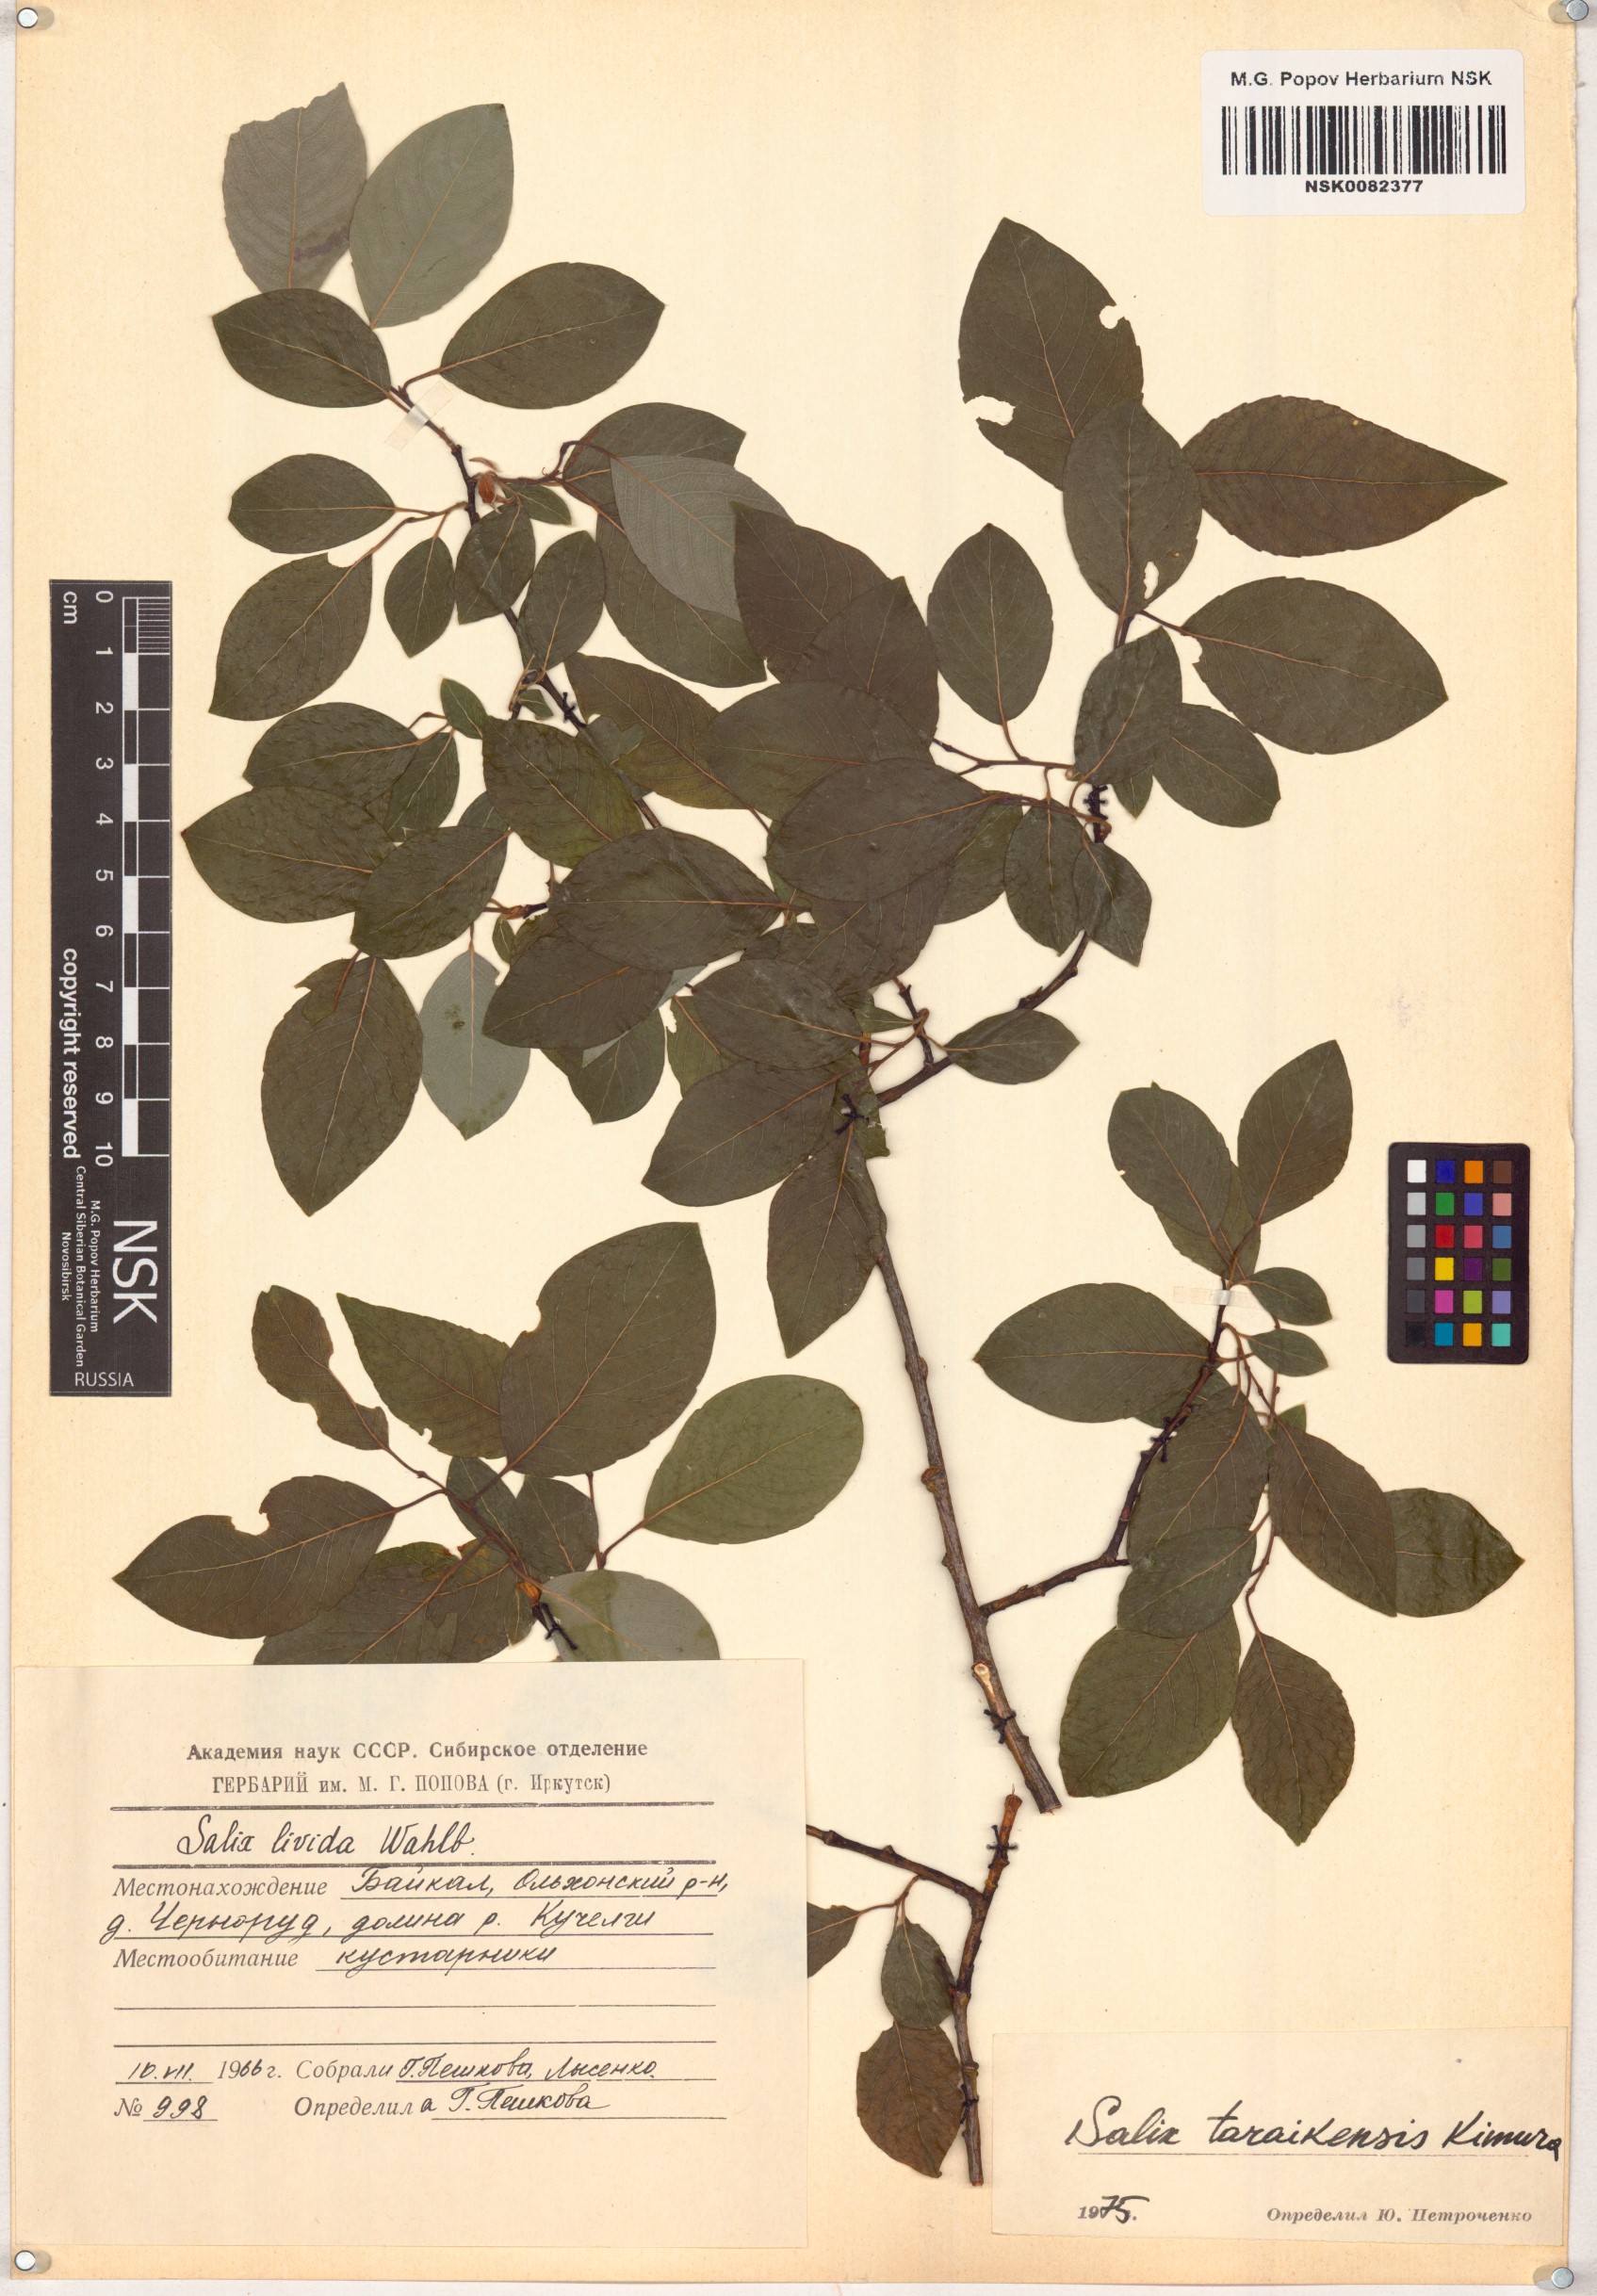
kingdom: Plantae
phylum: Tracheophyta
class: Magnoliopsida
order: Malpighiales
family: Salicaceae
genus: Salix
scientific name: Salix taraikensis
